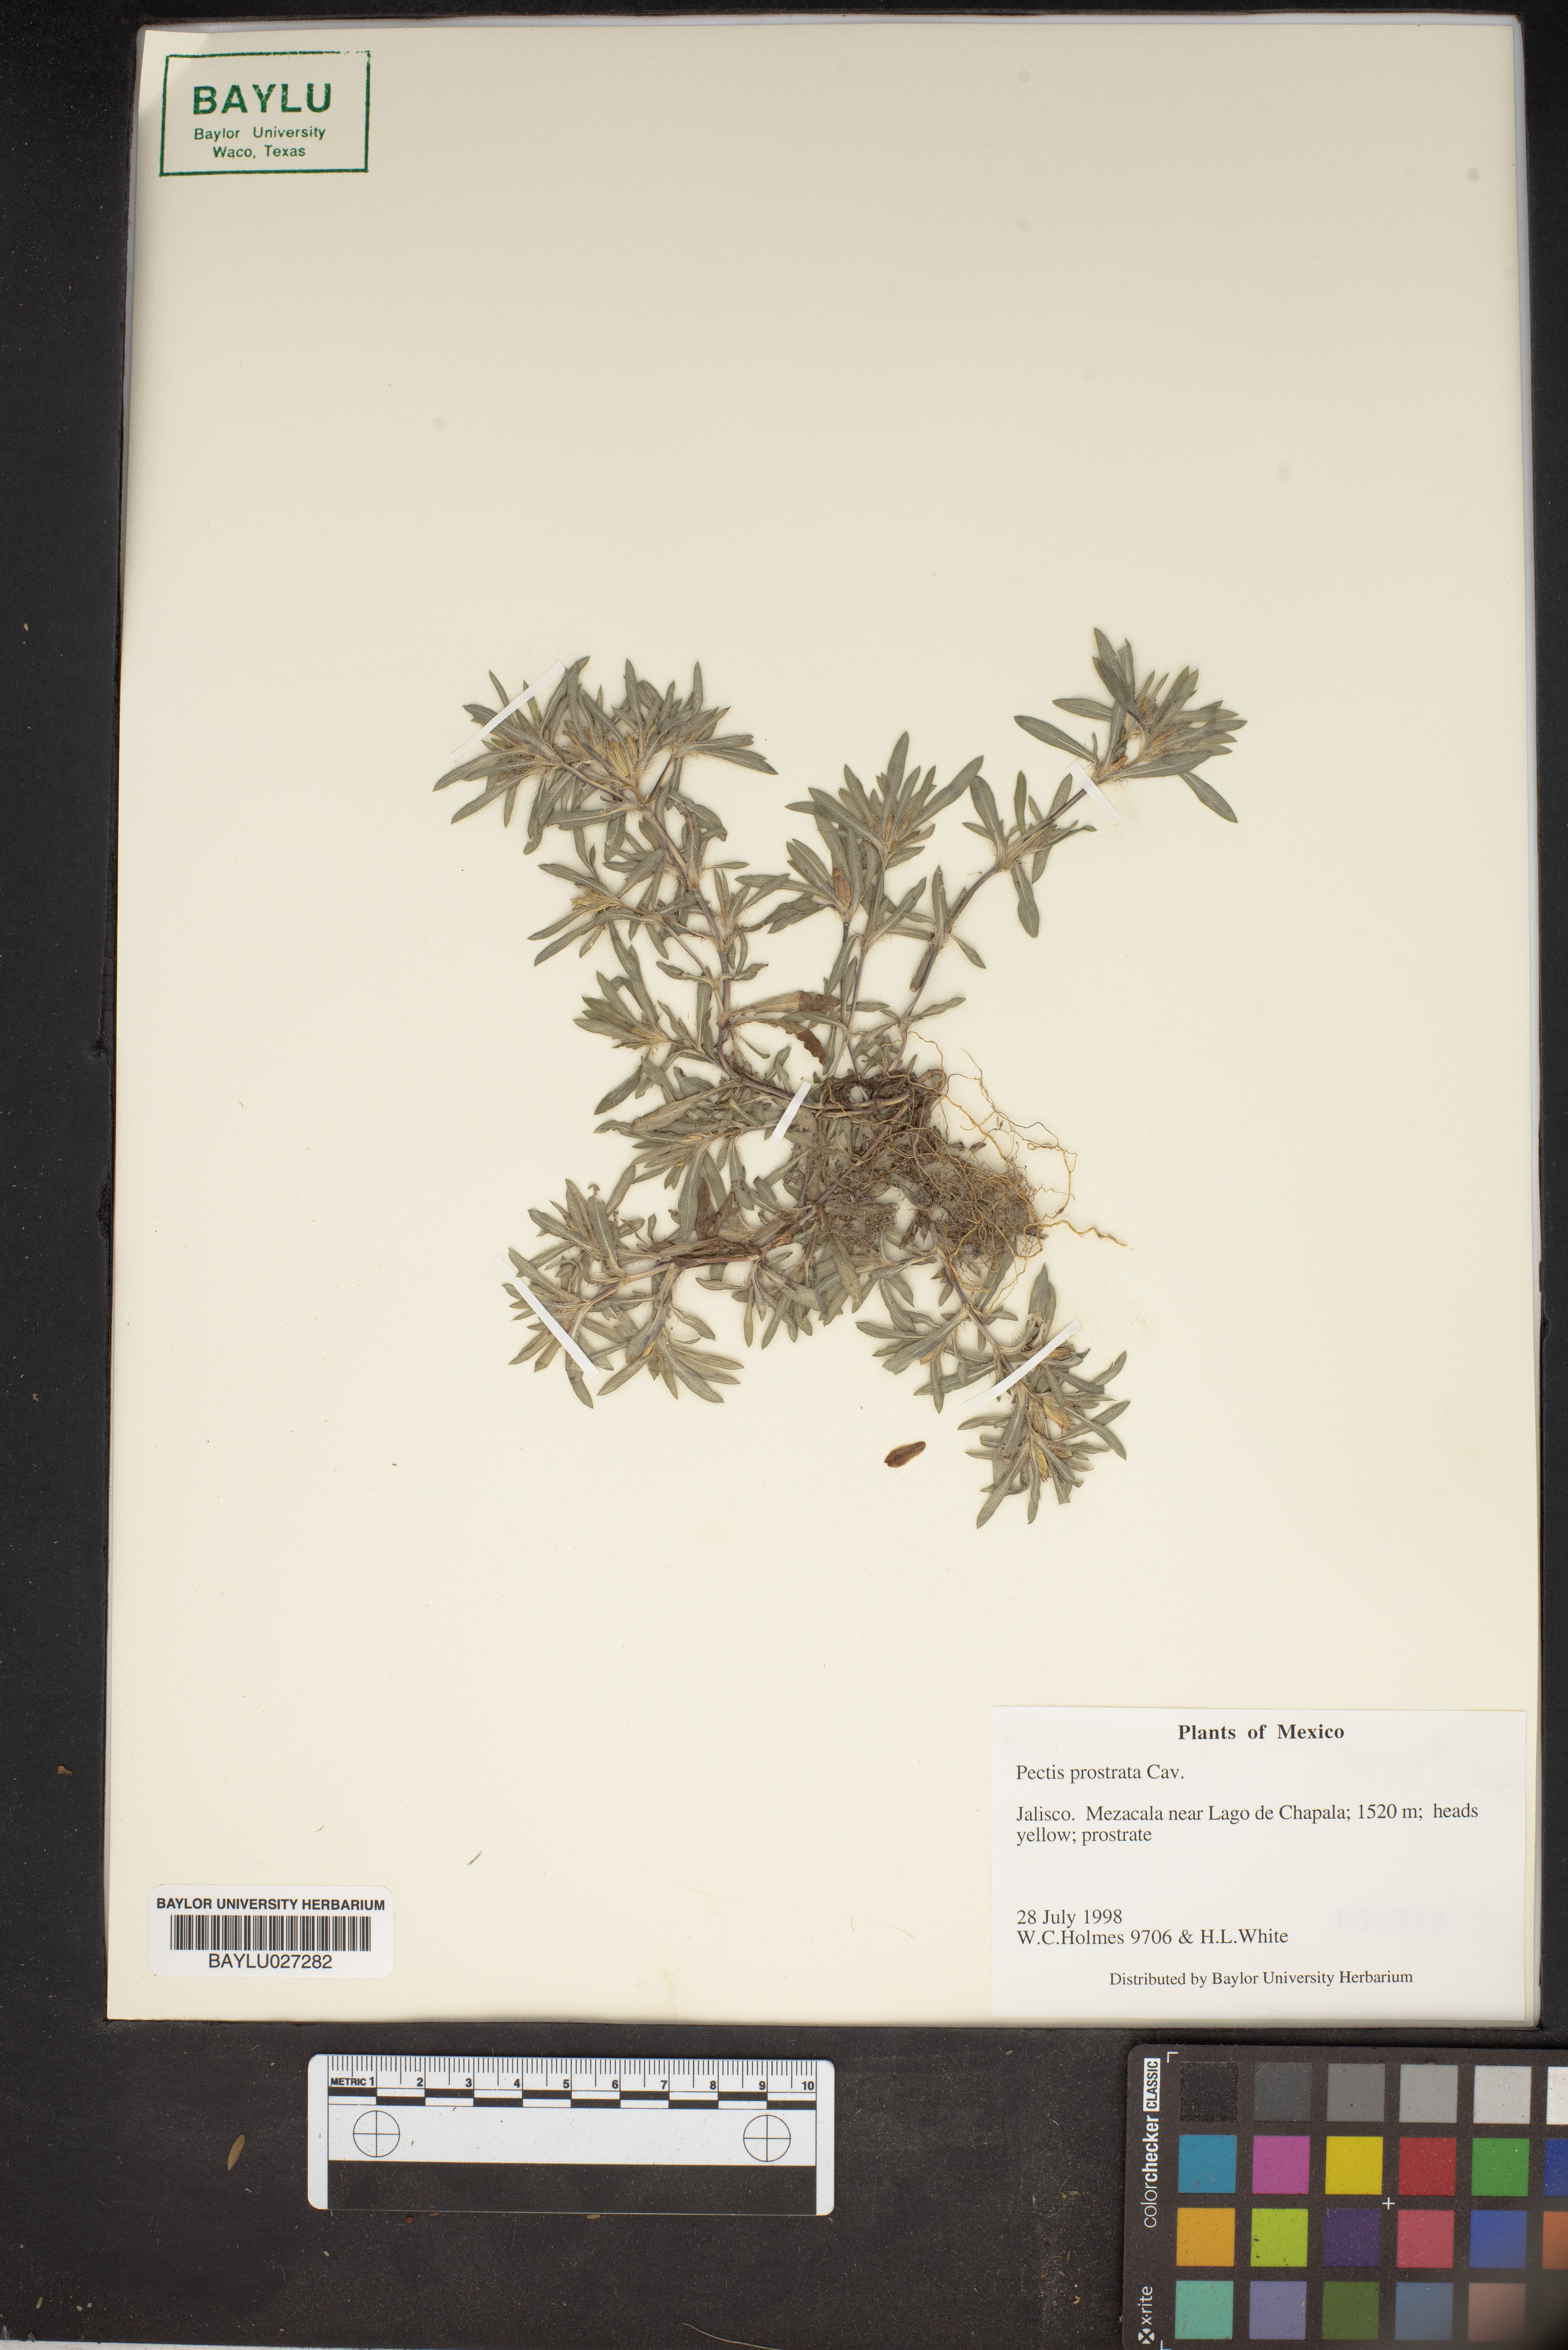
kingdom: Plantae
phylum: Tracheophyta
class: Magnoliopsida
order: Asterales
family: Asteraceae
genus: Pectis
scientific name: Pectis prostrata
